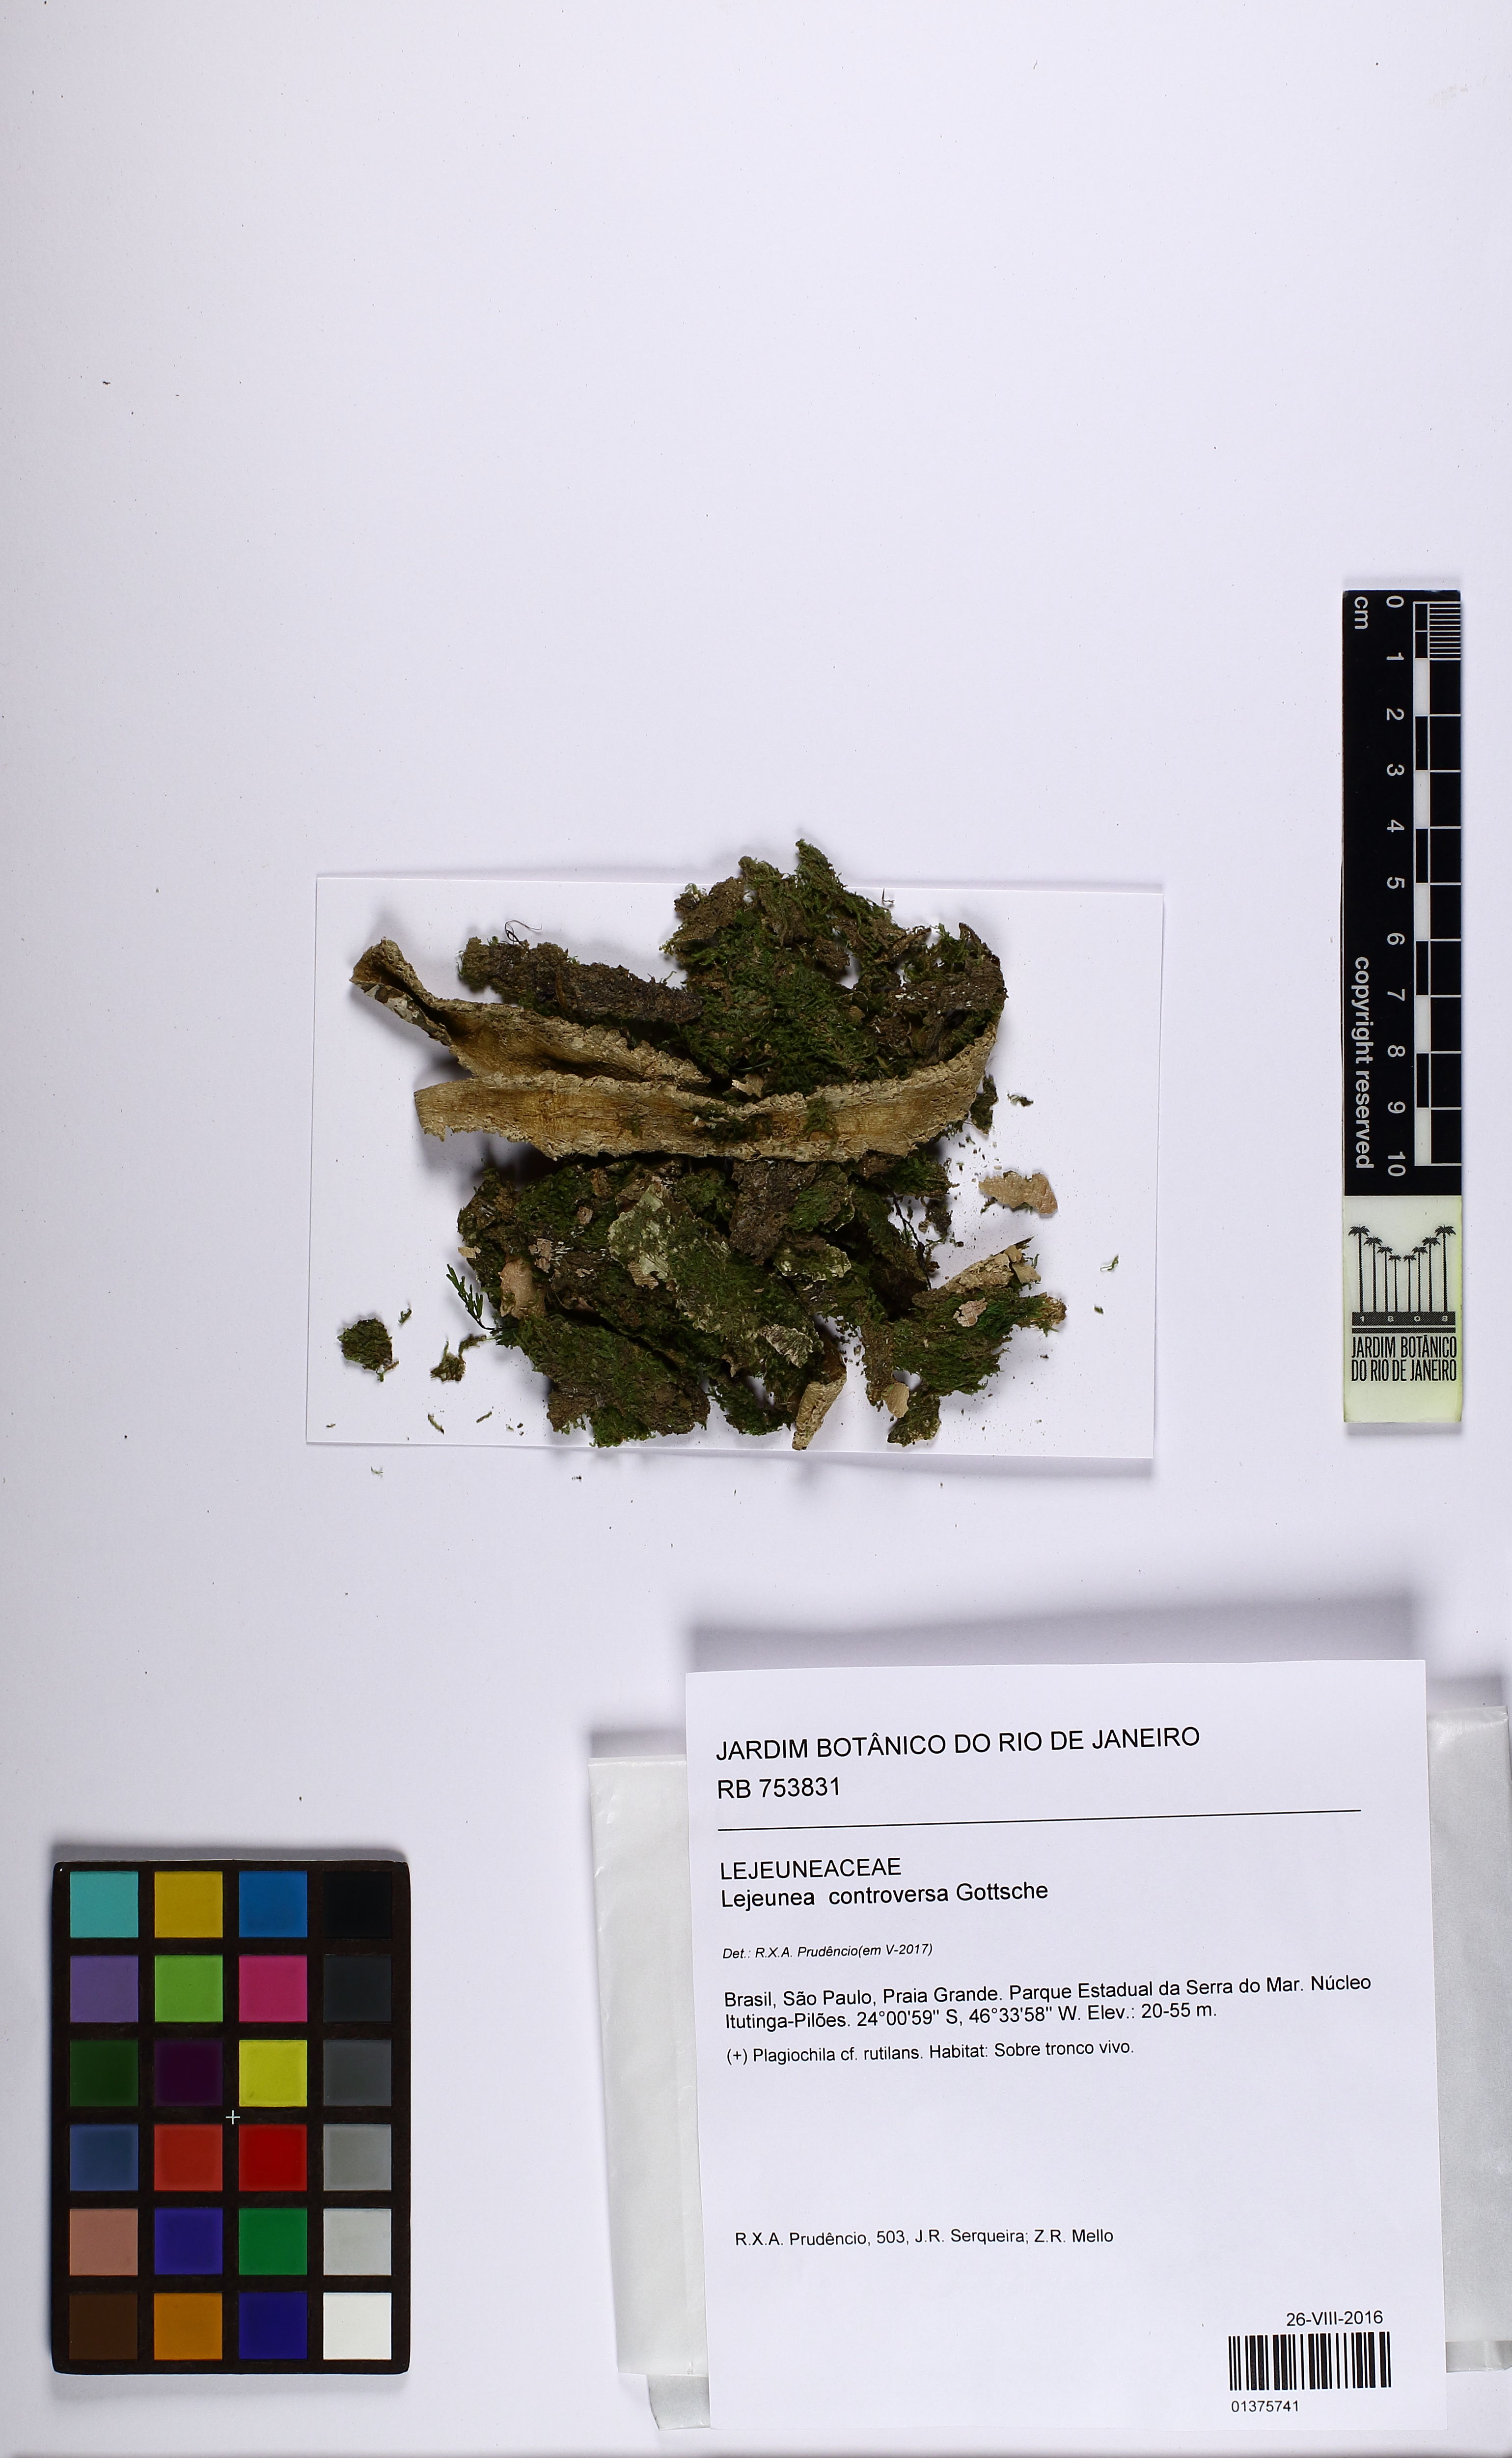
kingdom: Plantae
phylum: Marchantiophyta
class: Jungermanniopsida
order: Porellales
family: Lejeuneaceae
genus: Lejeunea
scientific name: Lejeunea controversa
